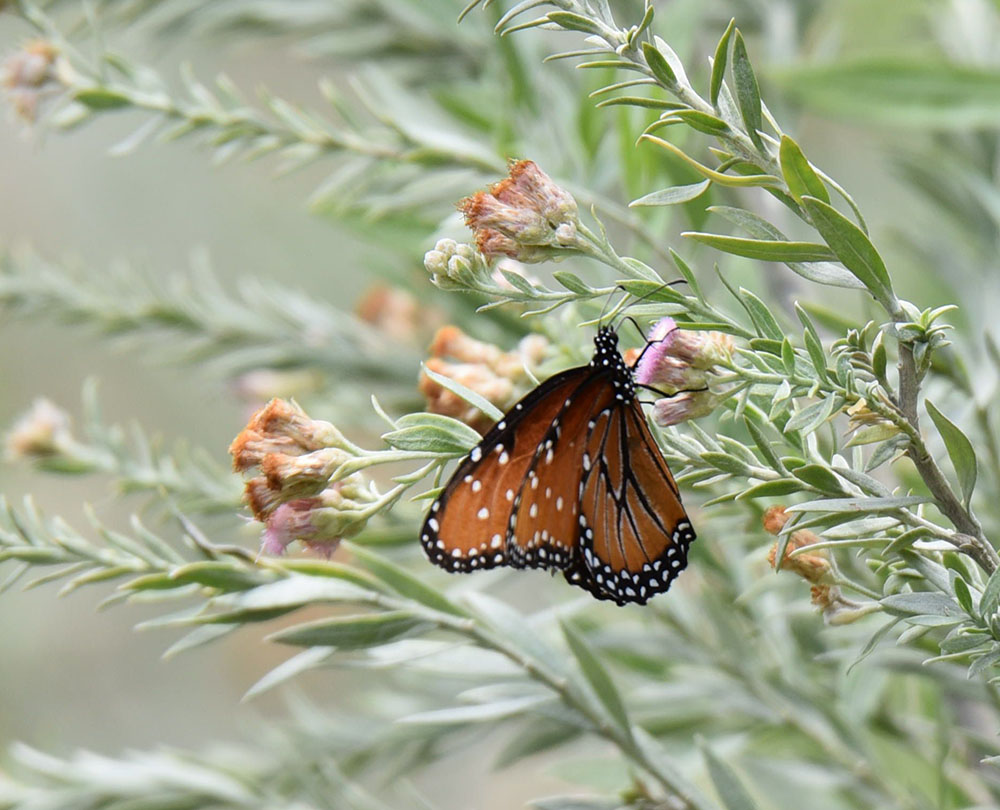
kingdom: Animalia
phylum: Arthropoda
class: Insecta
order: Lepidoptera
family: Nymphalidae
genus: Danaus
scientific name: Danaus gilippus
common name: Queen
